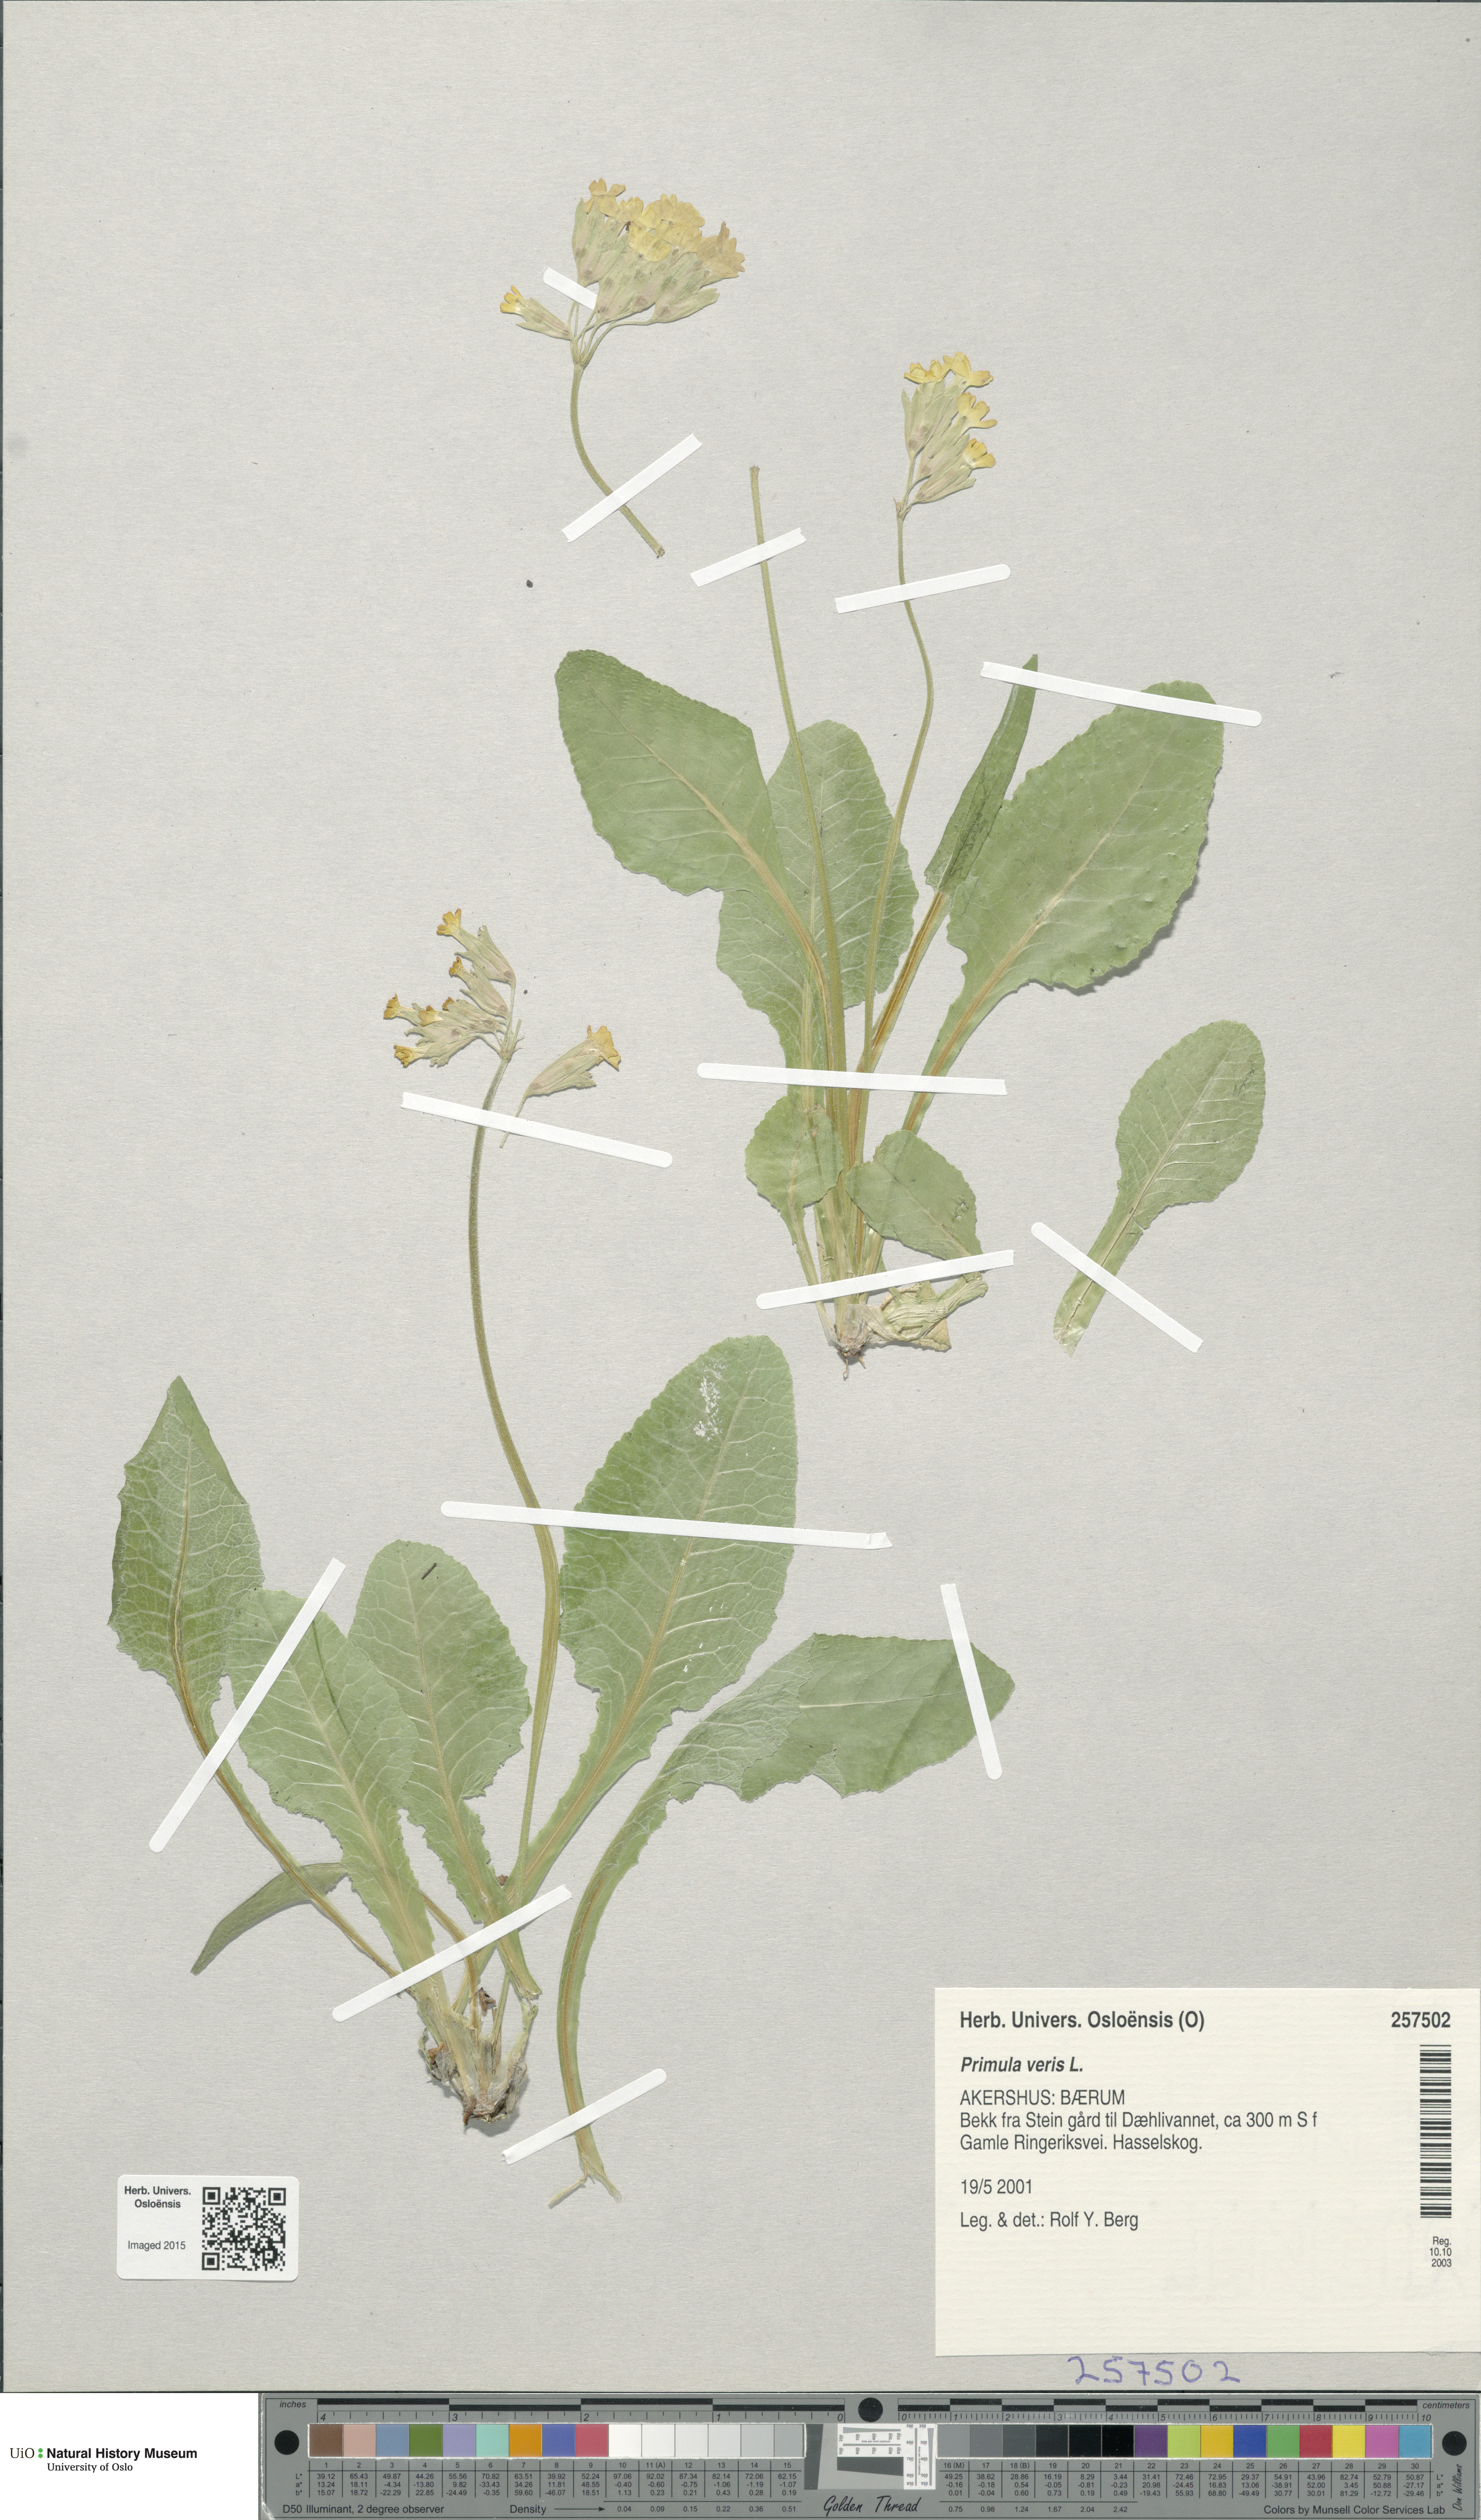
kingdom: Plantae
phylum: Tracheophyta
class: Magnoliopsida
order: Ericales
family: Primulaceae
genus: Primula
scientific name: Primula veris
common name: Cowslip
